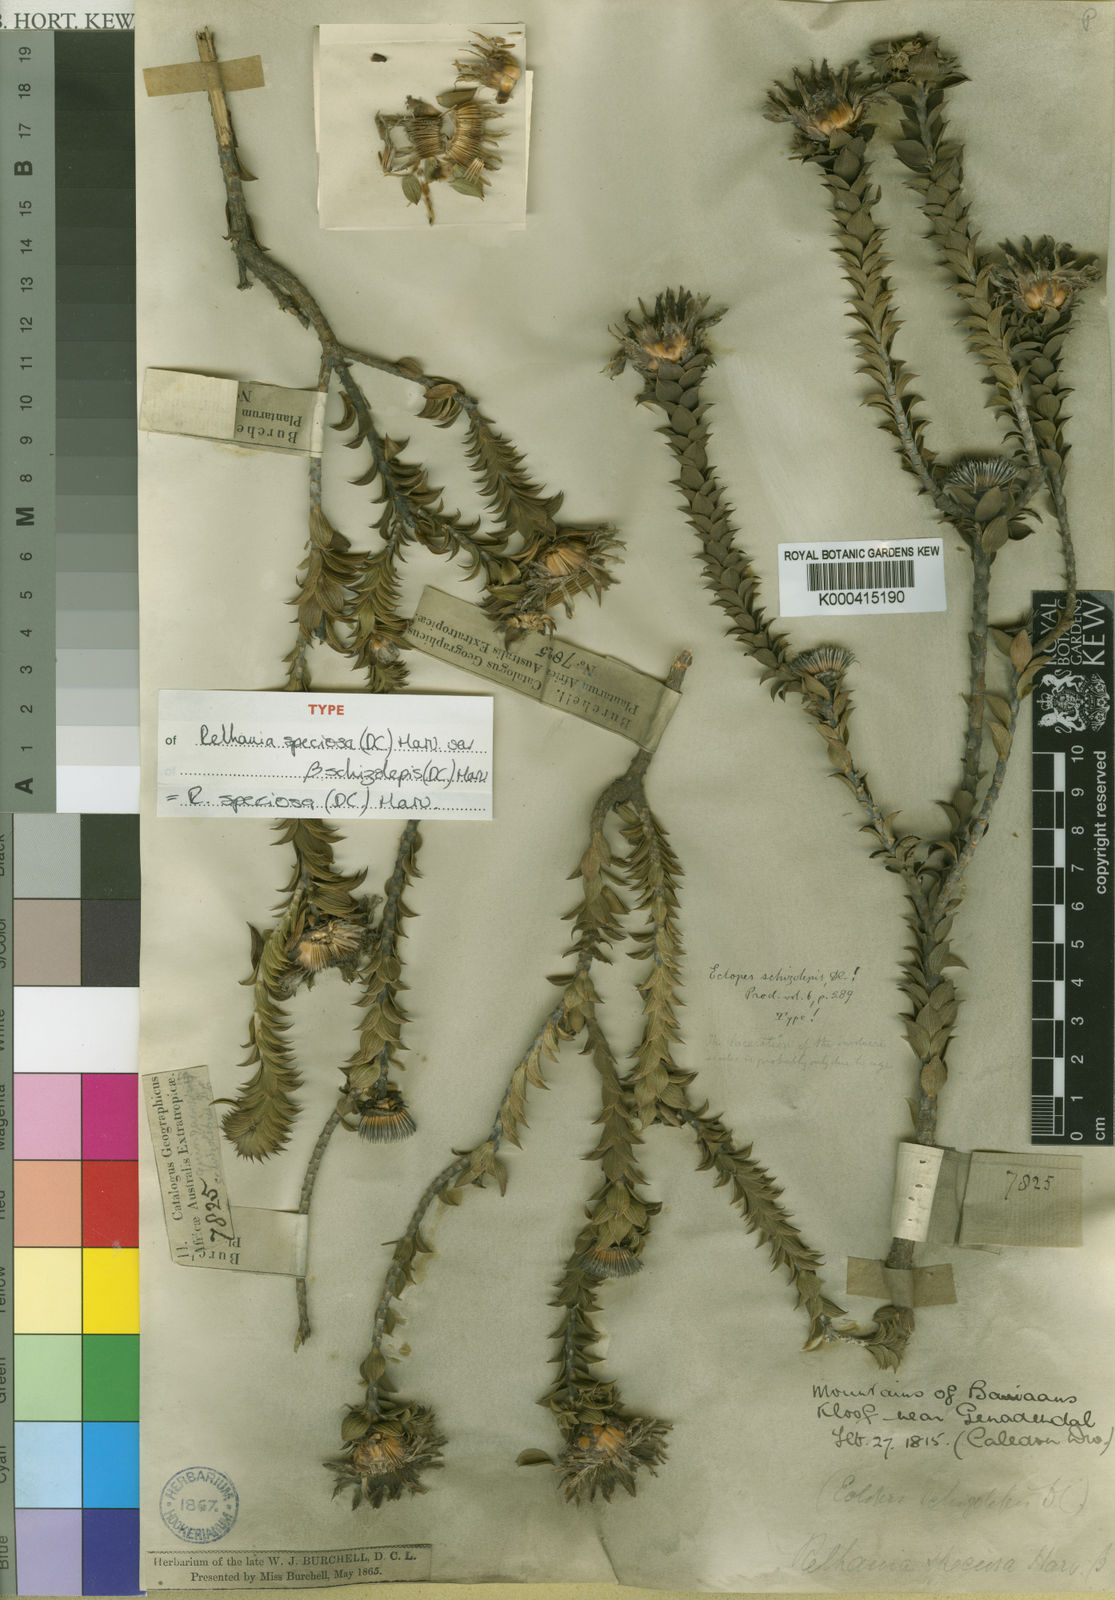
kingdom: Plantae
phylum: Tracheophyta
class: Magnoliopsida
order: Asterales
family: Asteraceae
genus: Oedera
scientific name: Oedera speciosa
